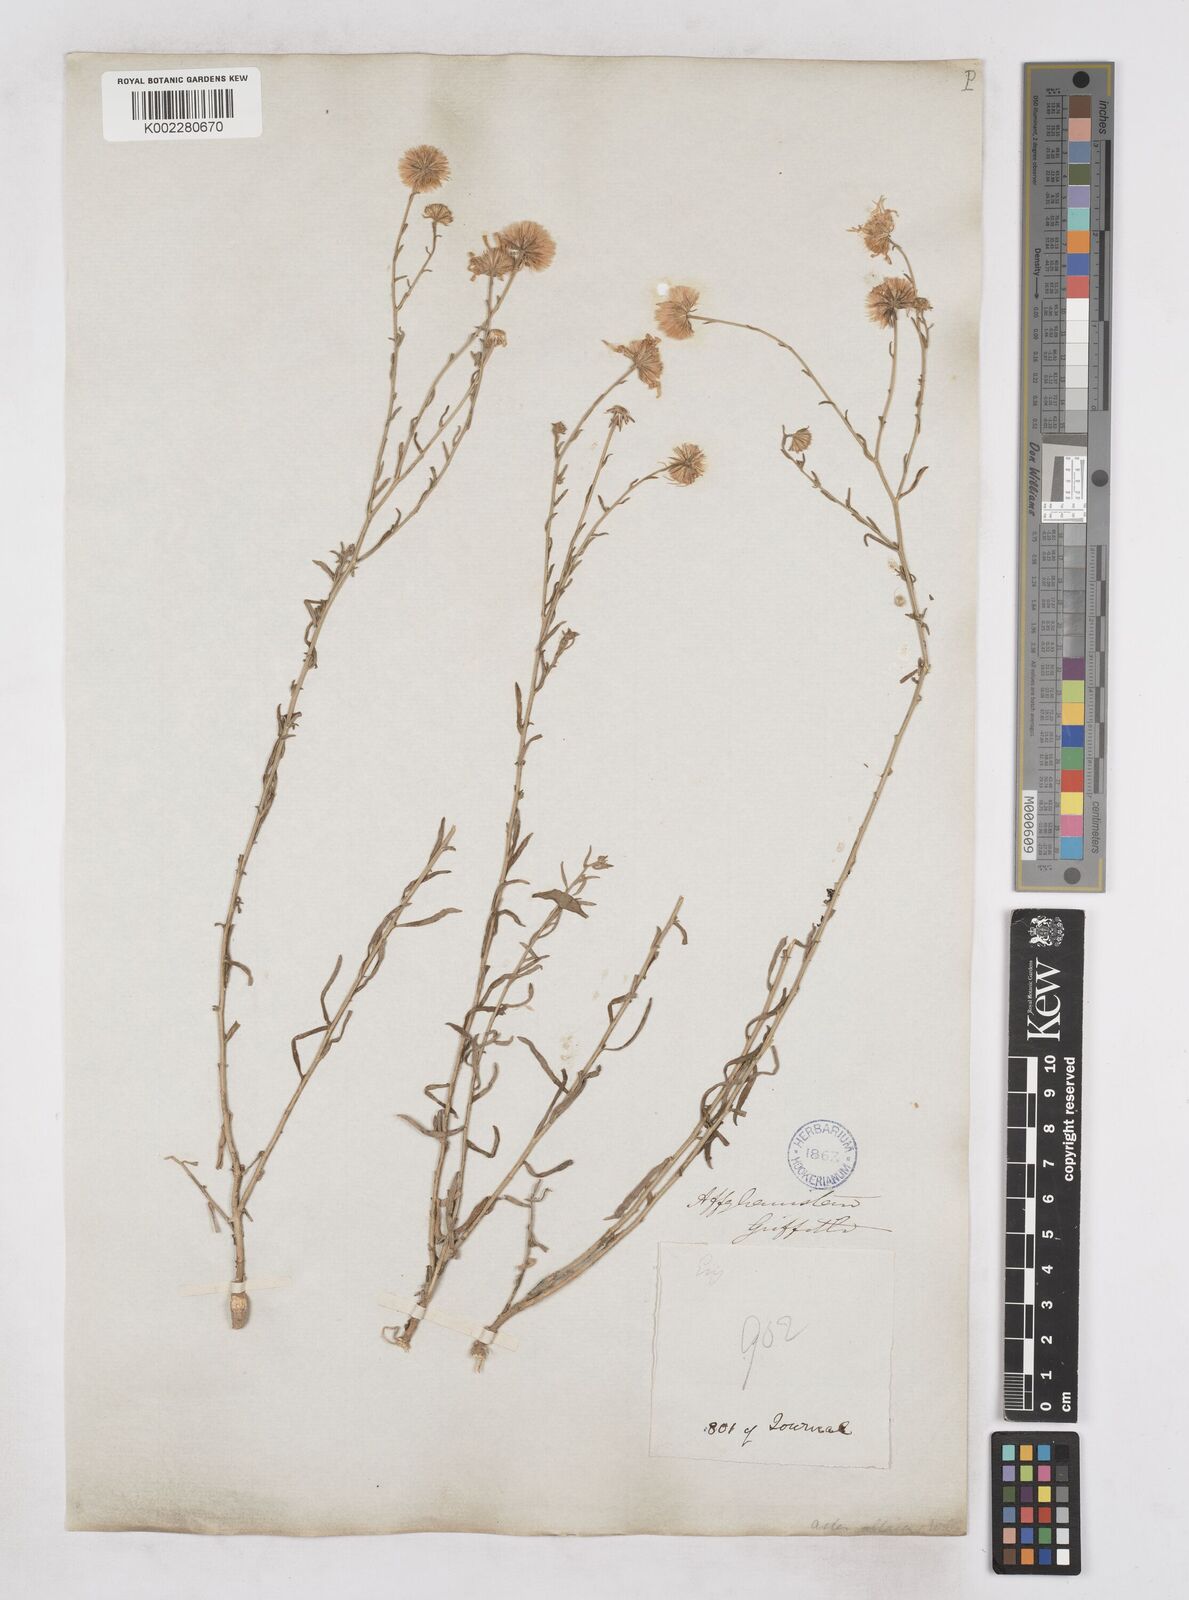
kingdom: Plantae
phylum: Tracheophyta
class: Magnoliopsida
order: Asterales
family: Asteraceae
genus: Heteropappus
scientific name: Heteropappus altaicus
